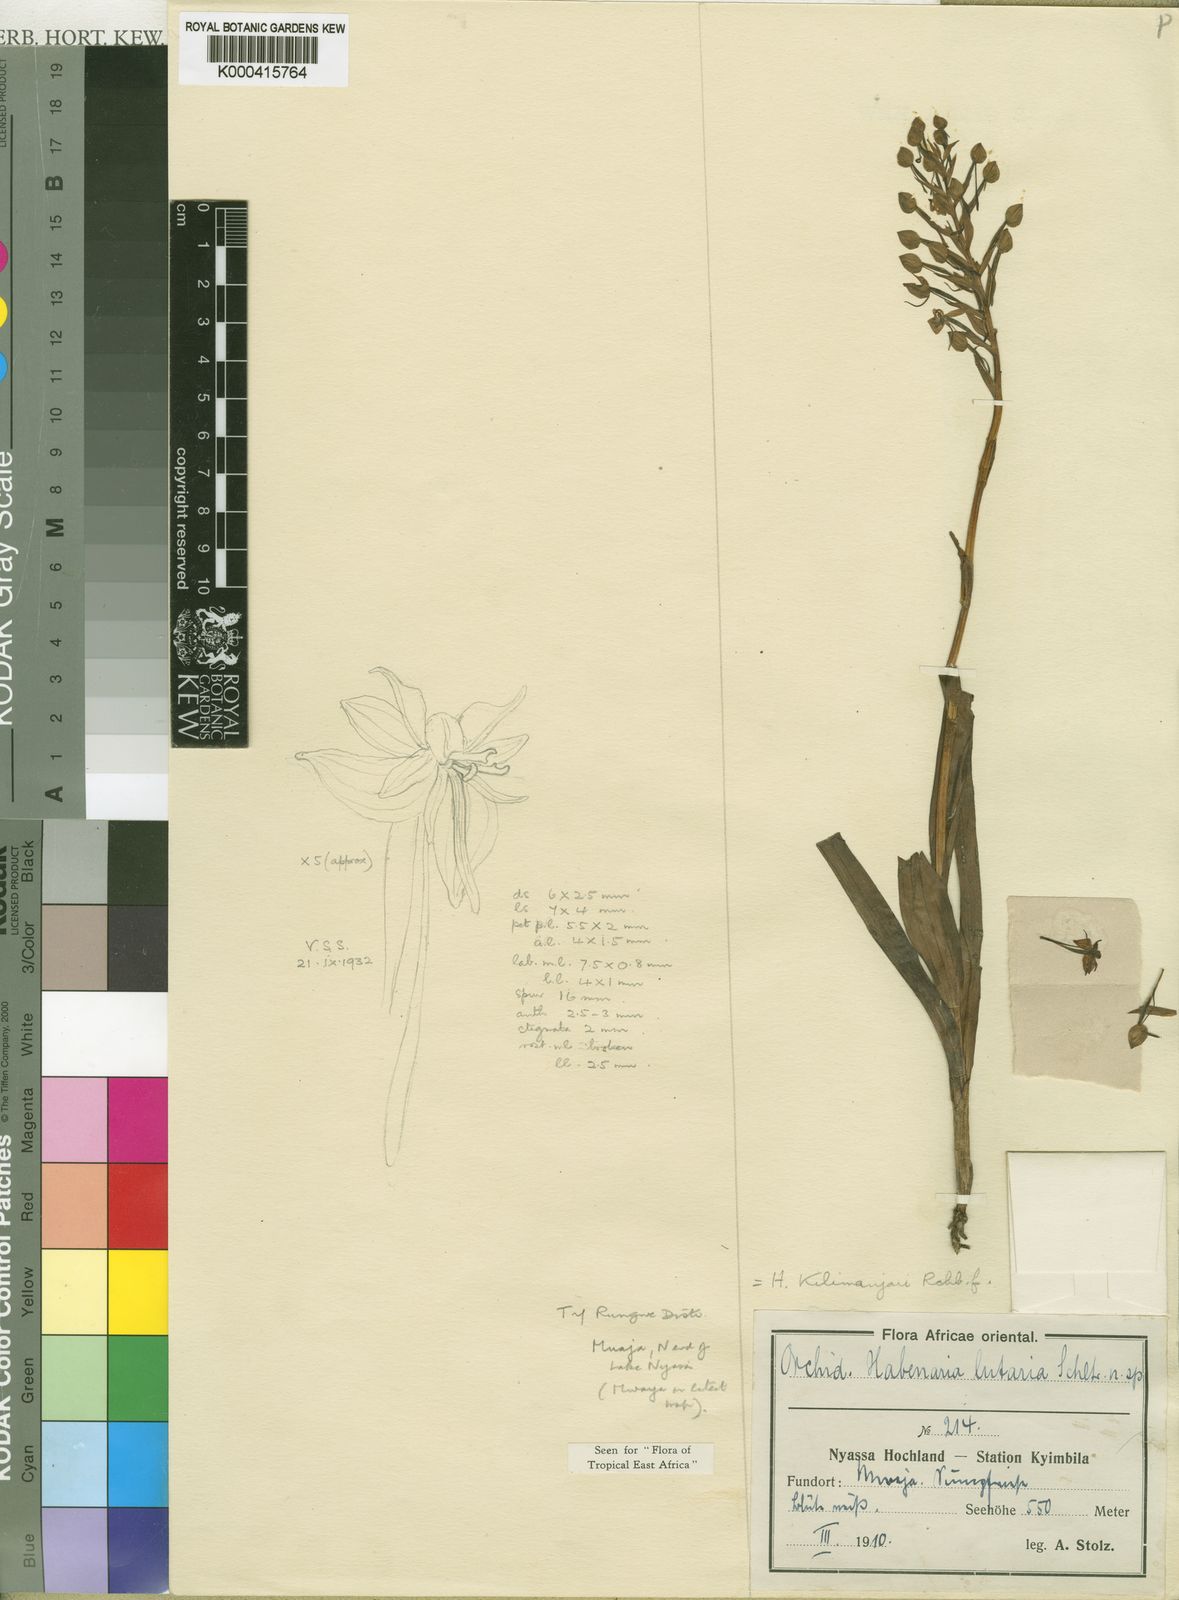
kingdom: Plantae
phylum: Tracheophyta
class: Liliopsida
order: Asparagales
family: Orchidaceae
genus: Habenaria
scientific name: Habenaria kilimanjari
